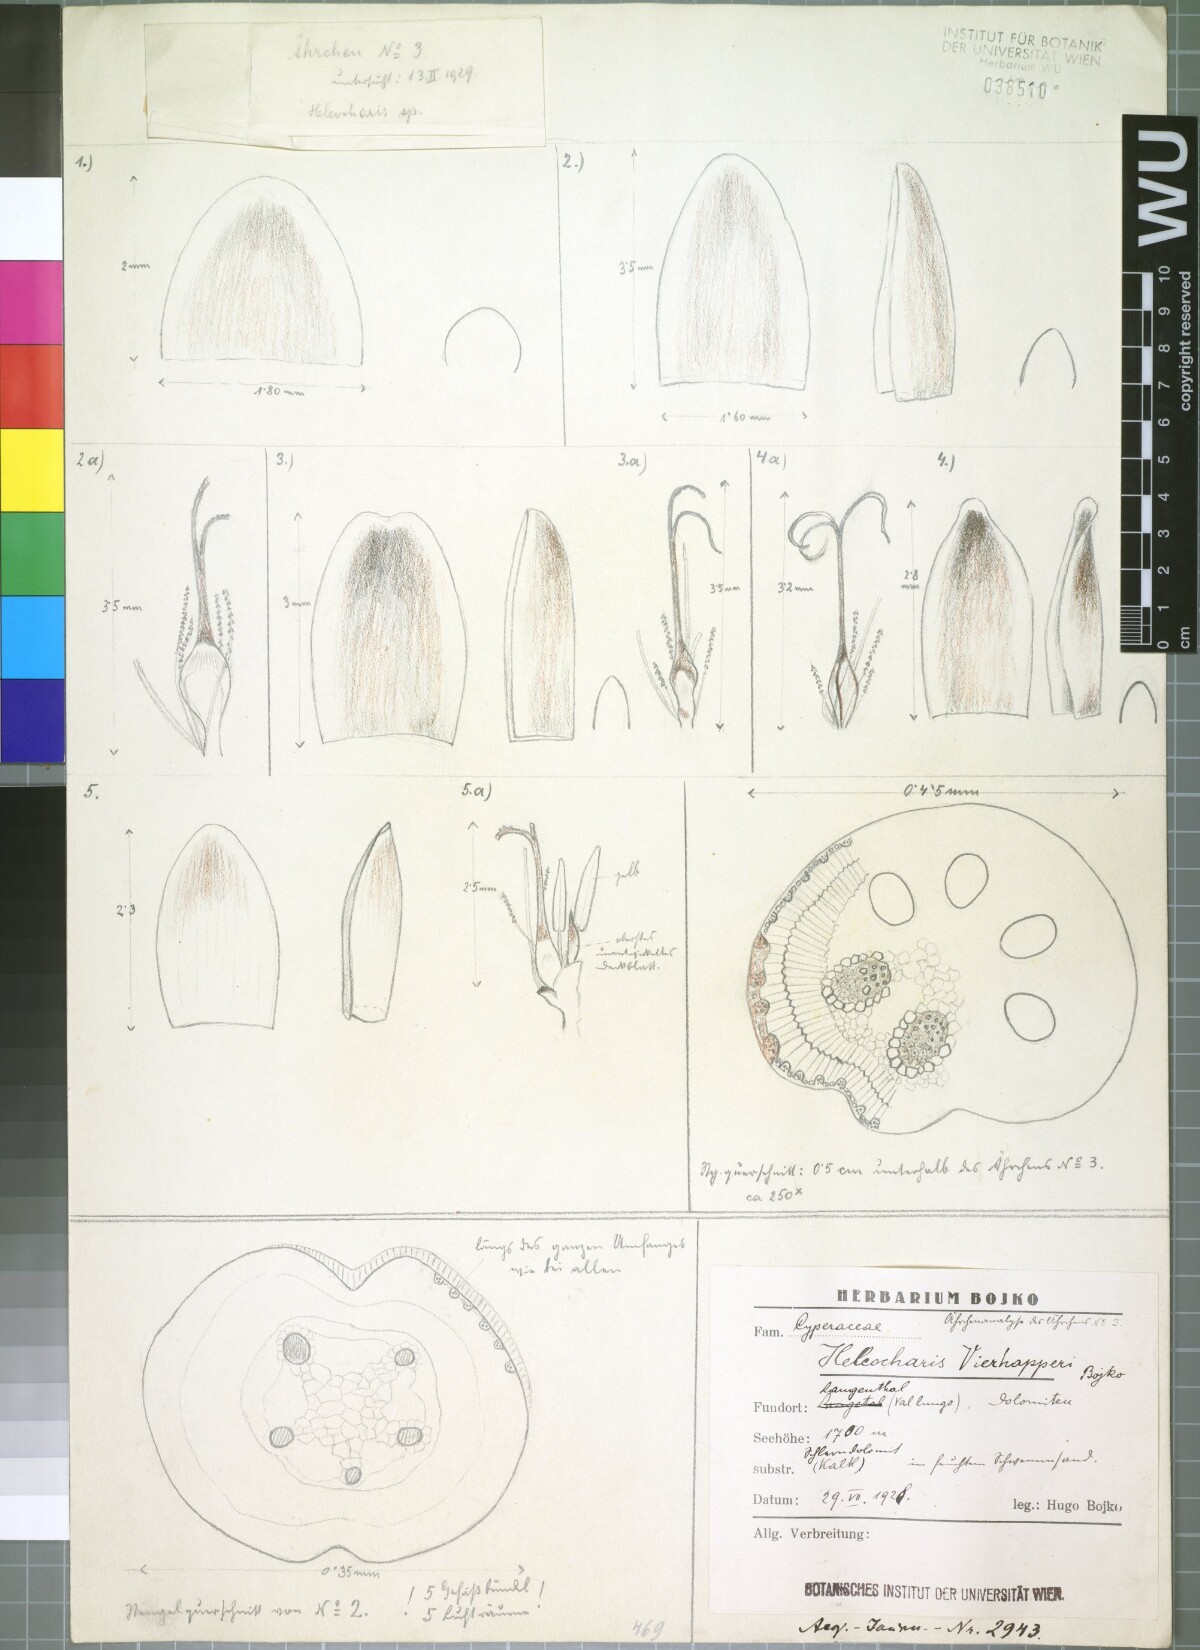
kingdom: Plantae
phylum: Tracheophyta
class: Liliopsida
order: Poales
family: Cyperaceae
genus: Eleocharis
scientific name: Eleocharis quinqueflora
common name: Few-flowered spike-rush
